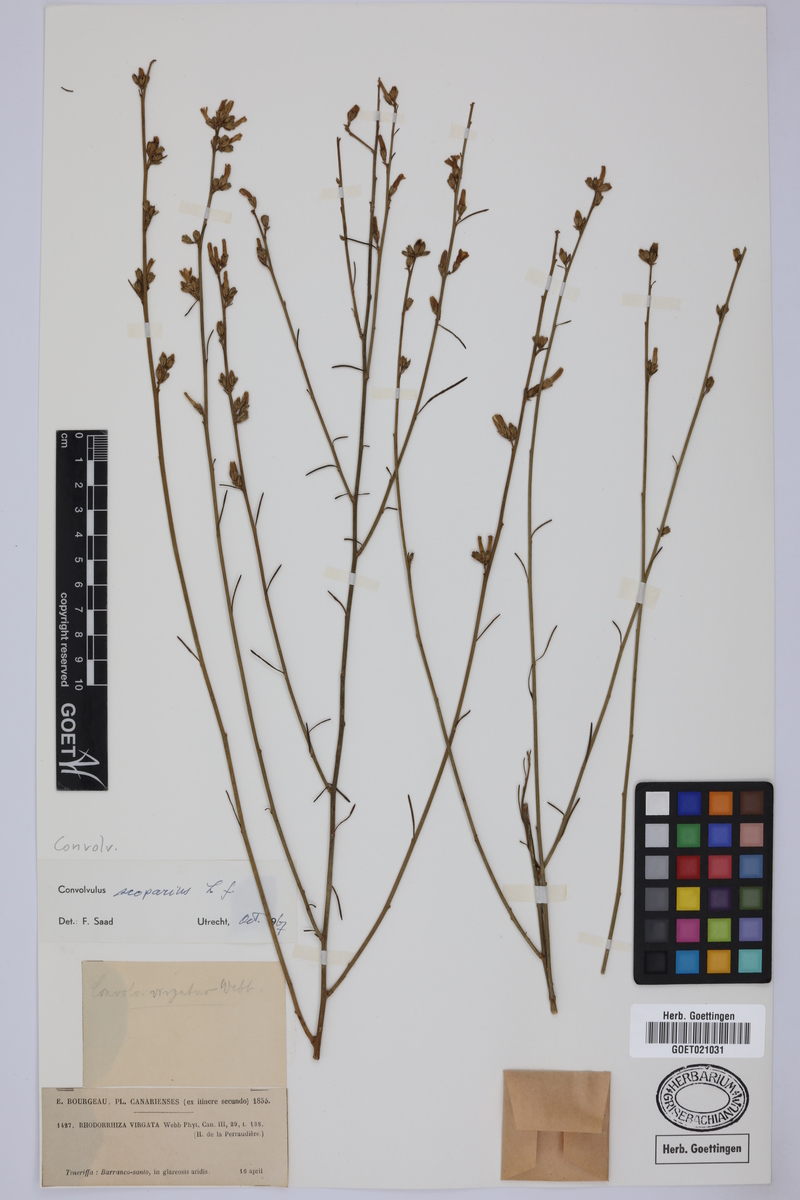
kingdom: Plantae
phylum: Tracheophyta
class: Magnoliopsida
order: Solanales
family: Convolvulaceae
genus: Convolvulus
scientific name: Convolvulus scoparius
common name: Lignum rhodium
